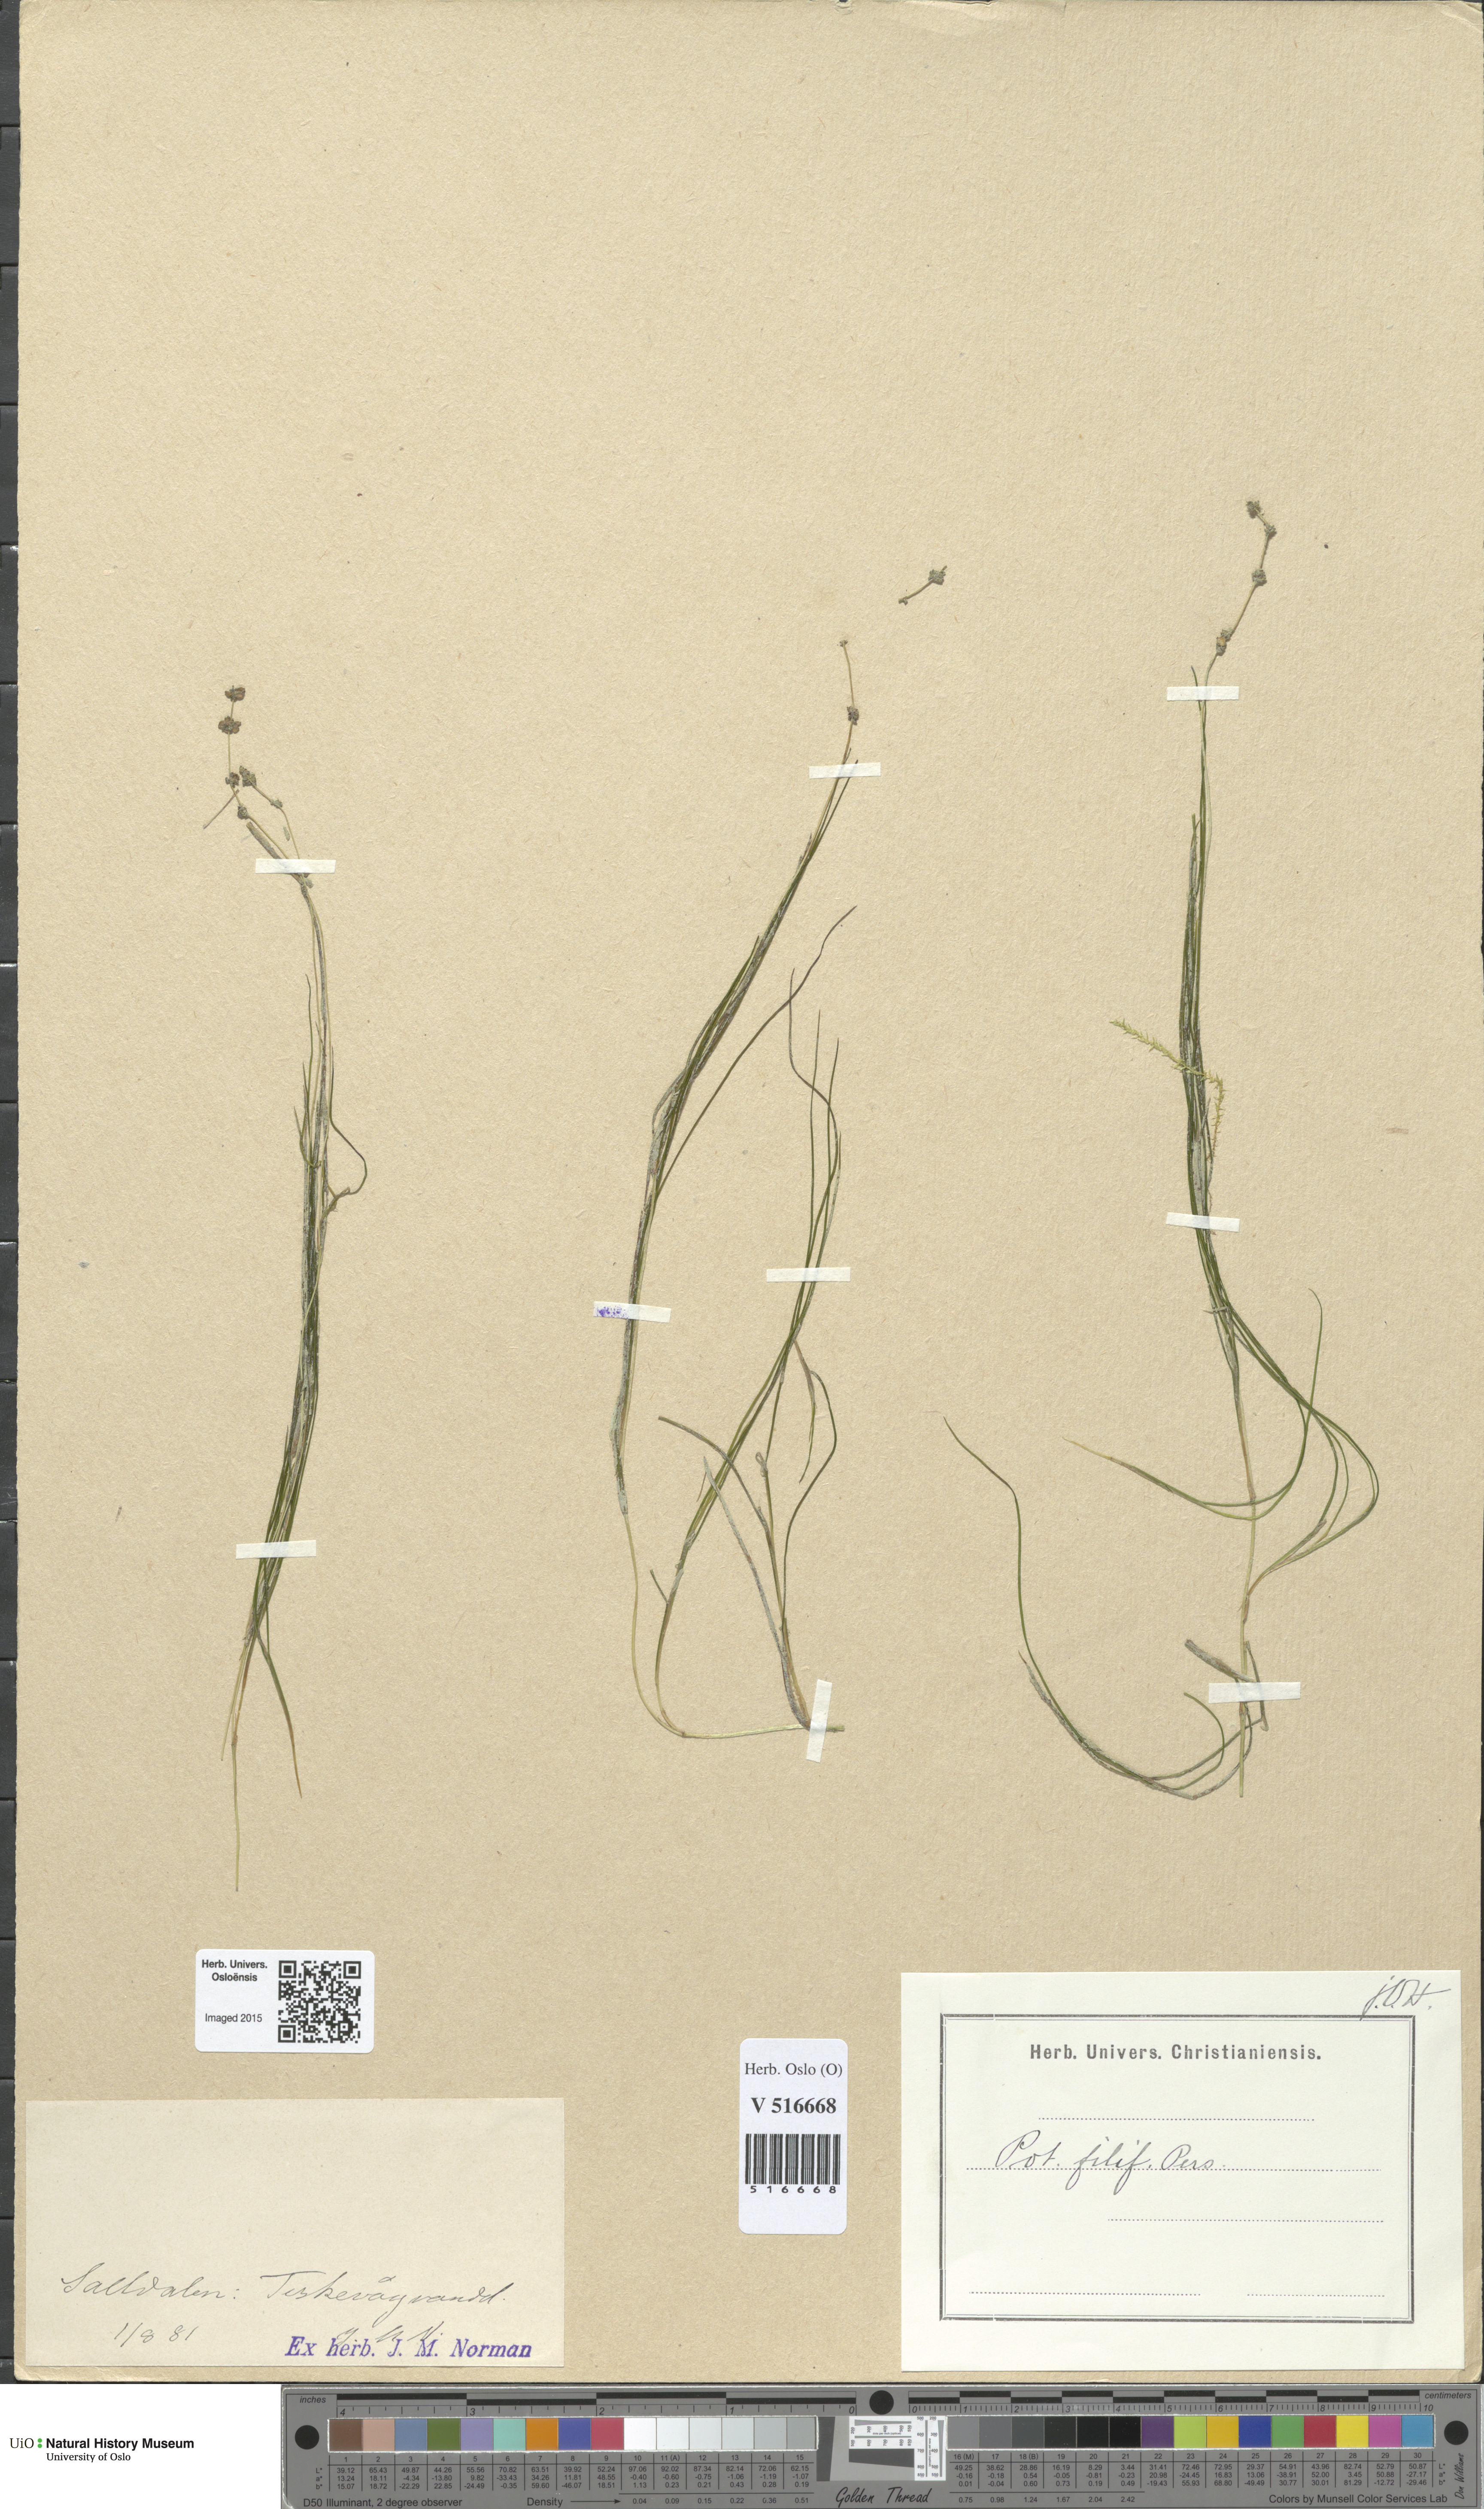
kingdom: Plantae
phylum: Tracheophyta
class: Liliopsida
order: Alismatales
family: Potamogetonaceae
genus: Stuckenia
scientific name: Stuckenia filiformis
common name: Alpine thread-leaved pondweed
